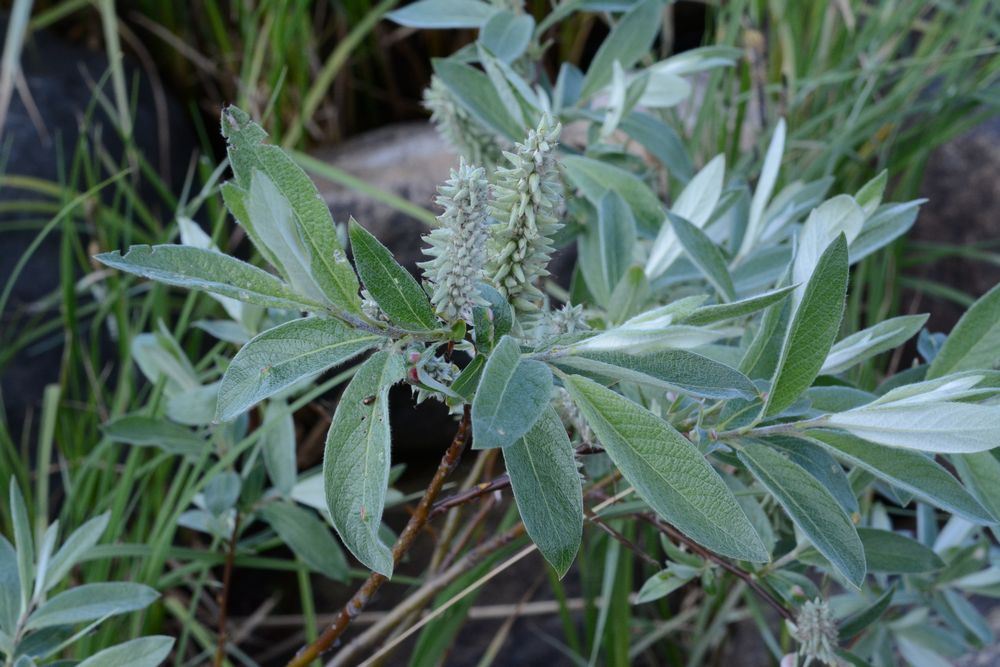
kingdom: Plantae
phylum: Tracheophyta
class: Magnoliopsida
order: Malpighiales
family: Salicaceae
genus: Salix
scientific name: Salix lapponum
